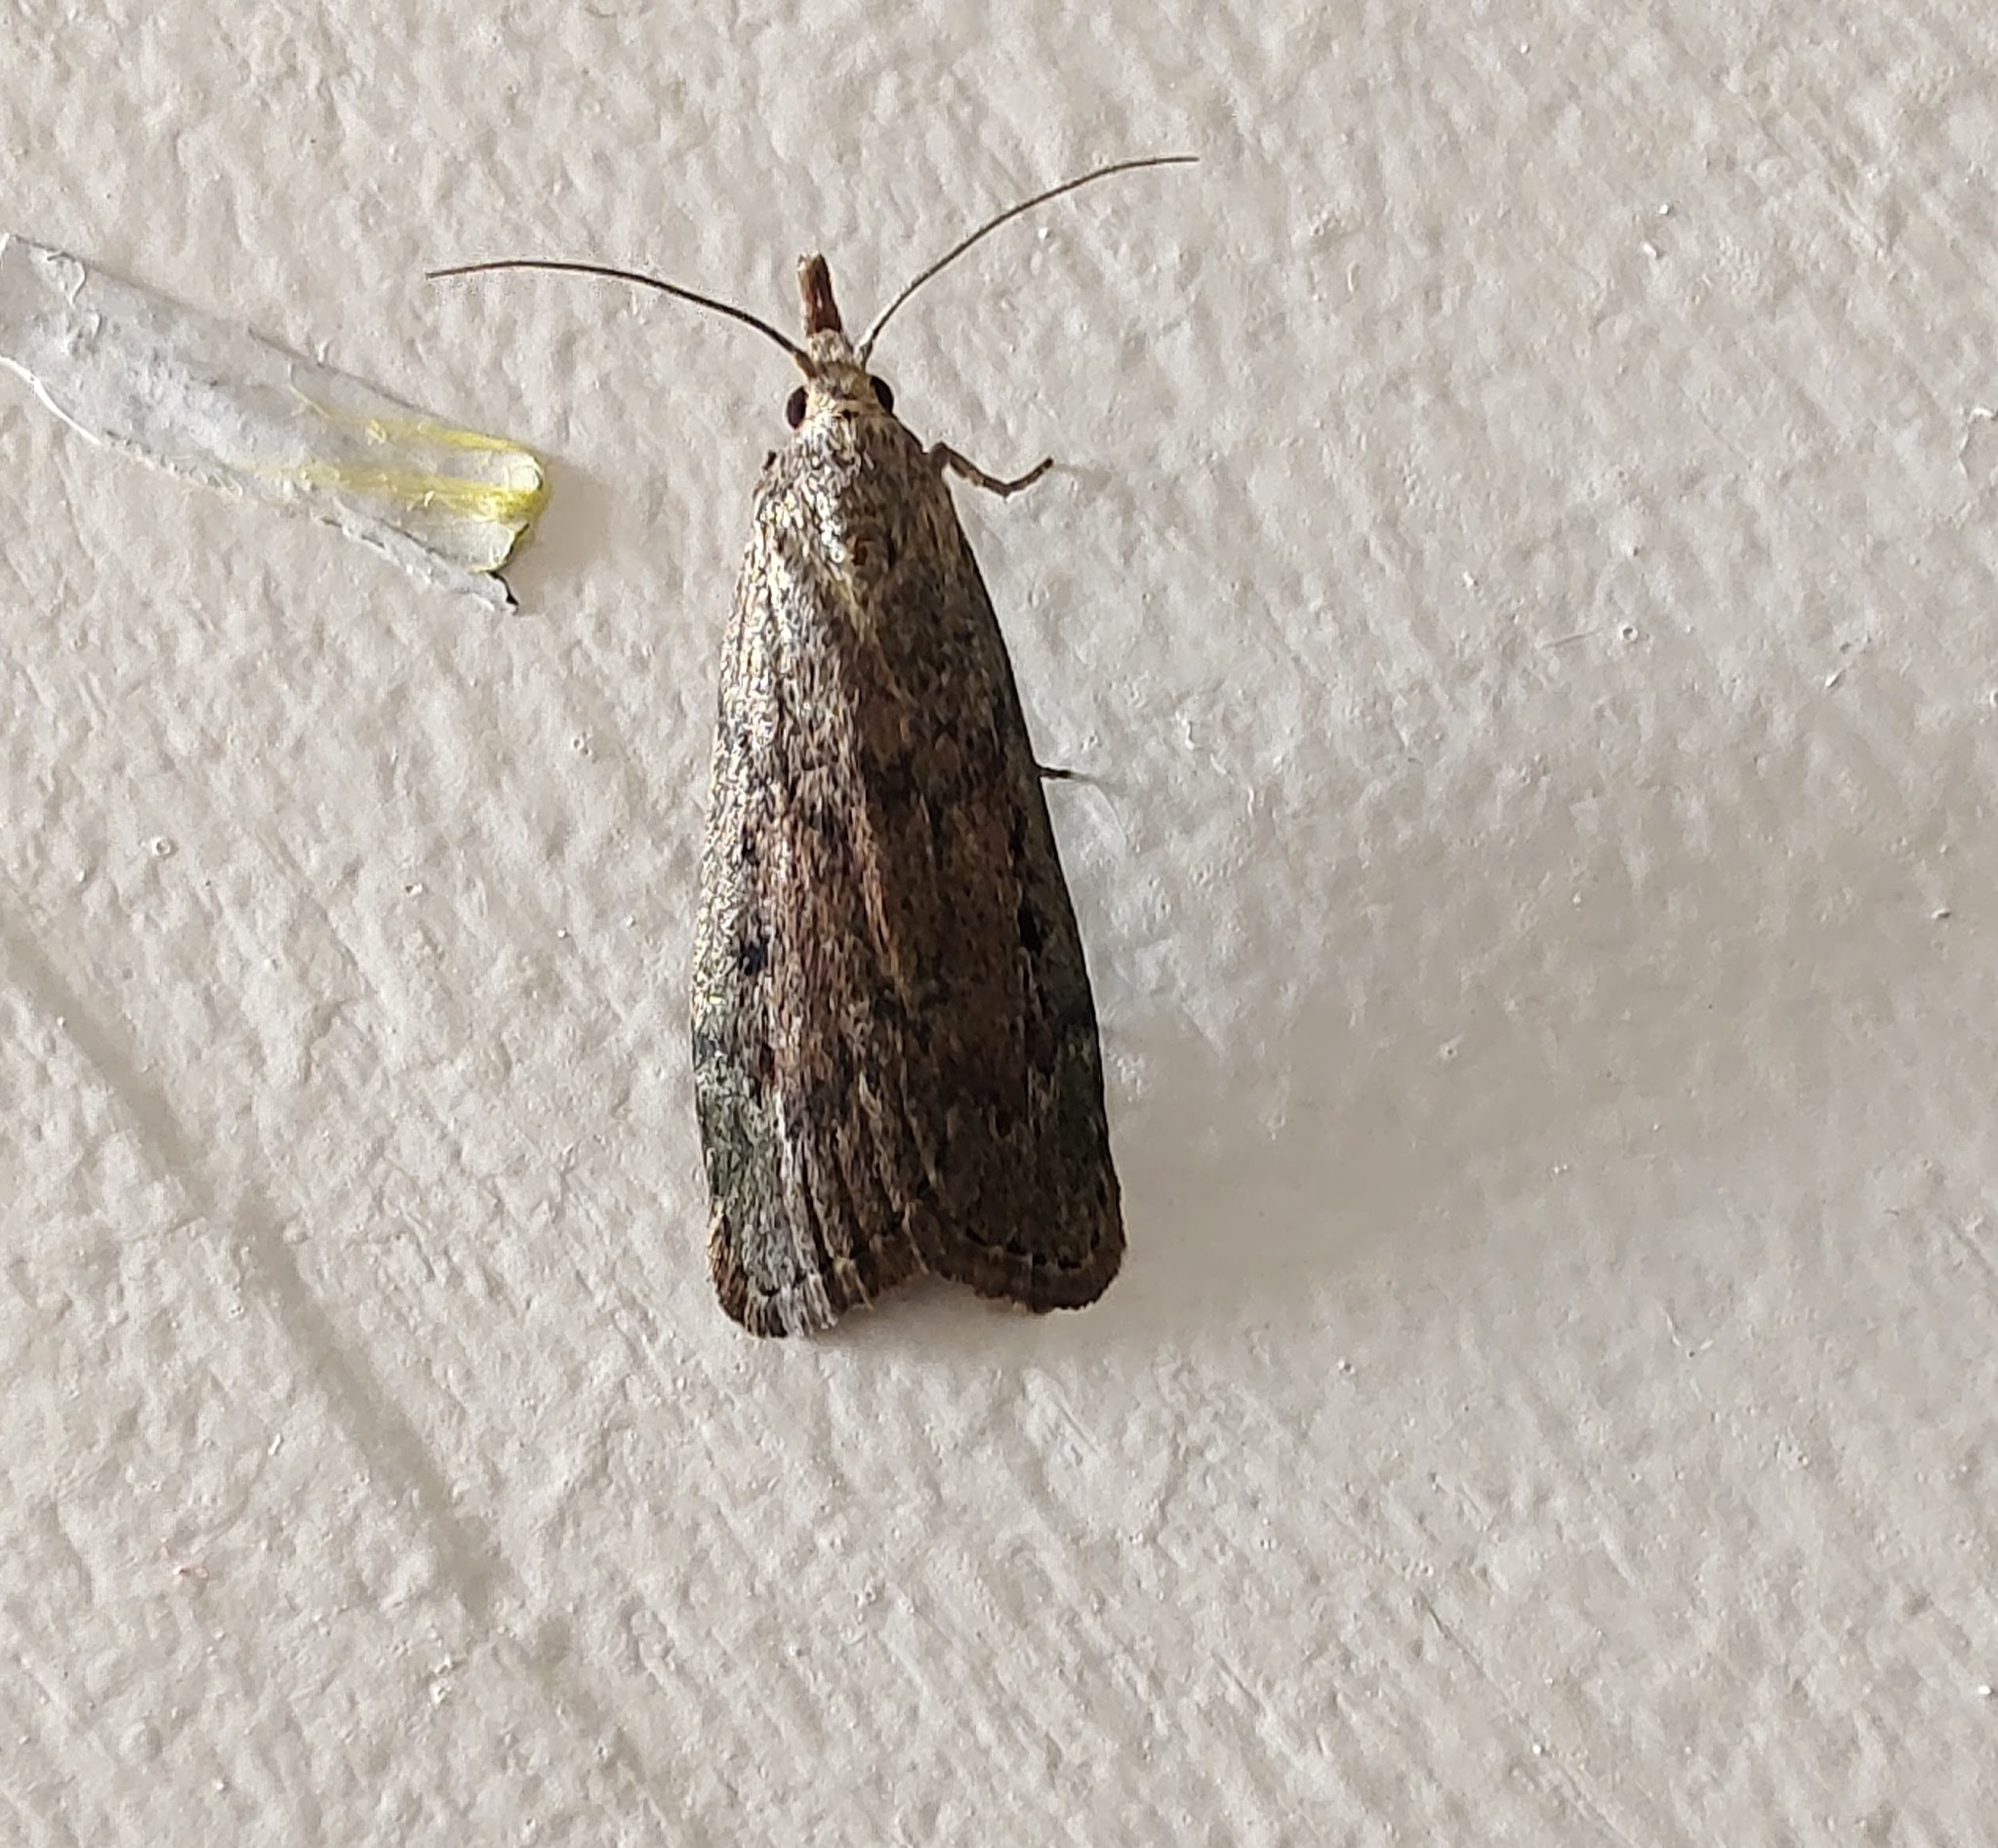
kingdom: Animalia
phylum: Arthropoda
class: Insecta
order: Lepidoptera
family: Pyralidae
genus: Aphomia
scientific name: Aphomia sociella
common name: Humlevoksmøl
